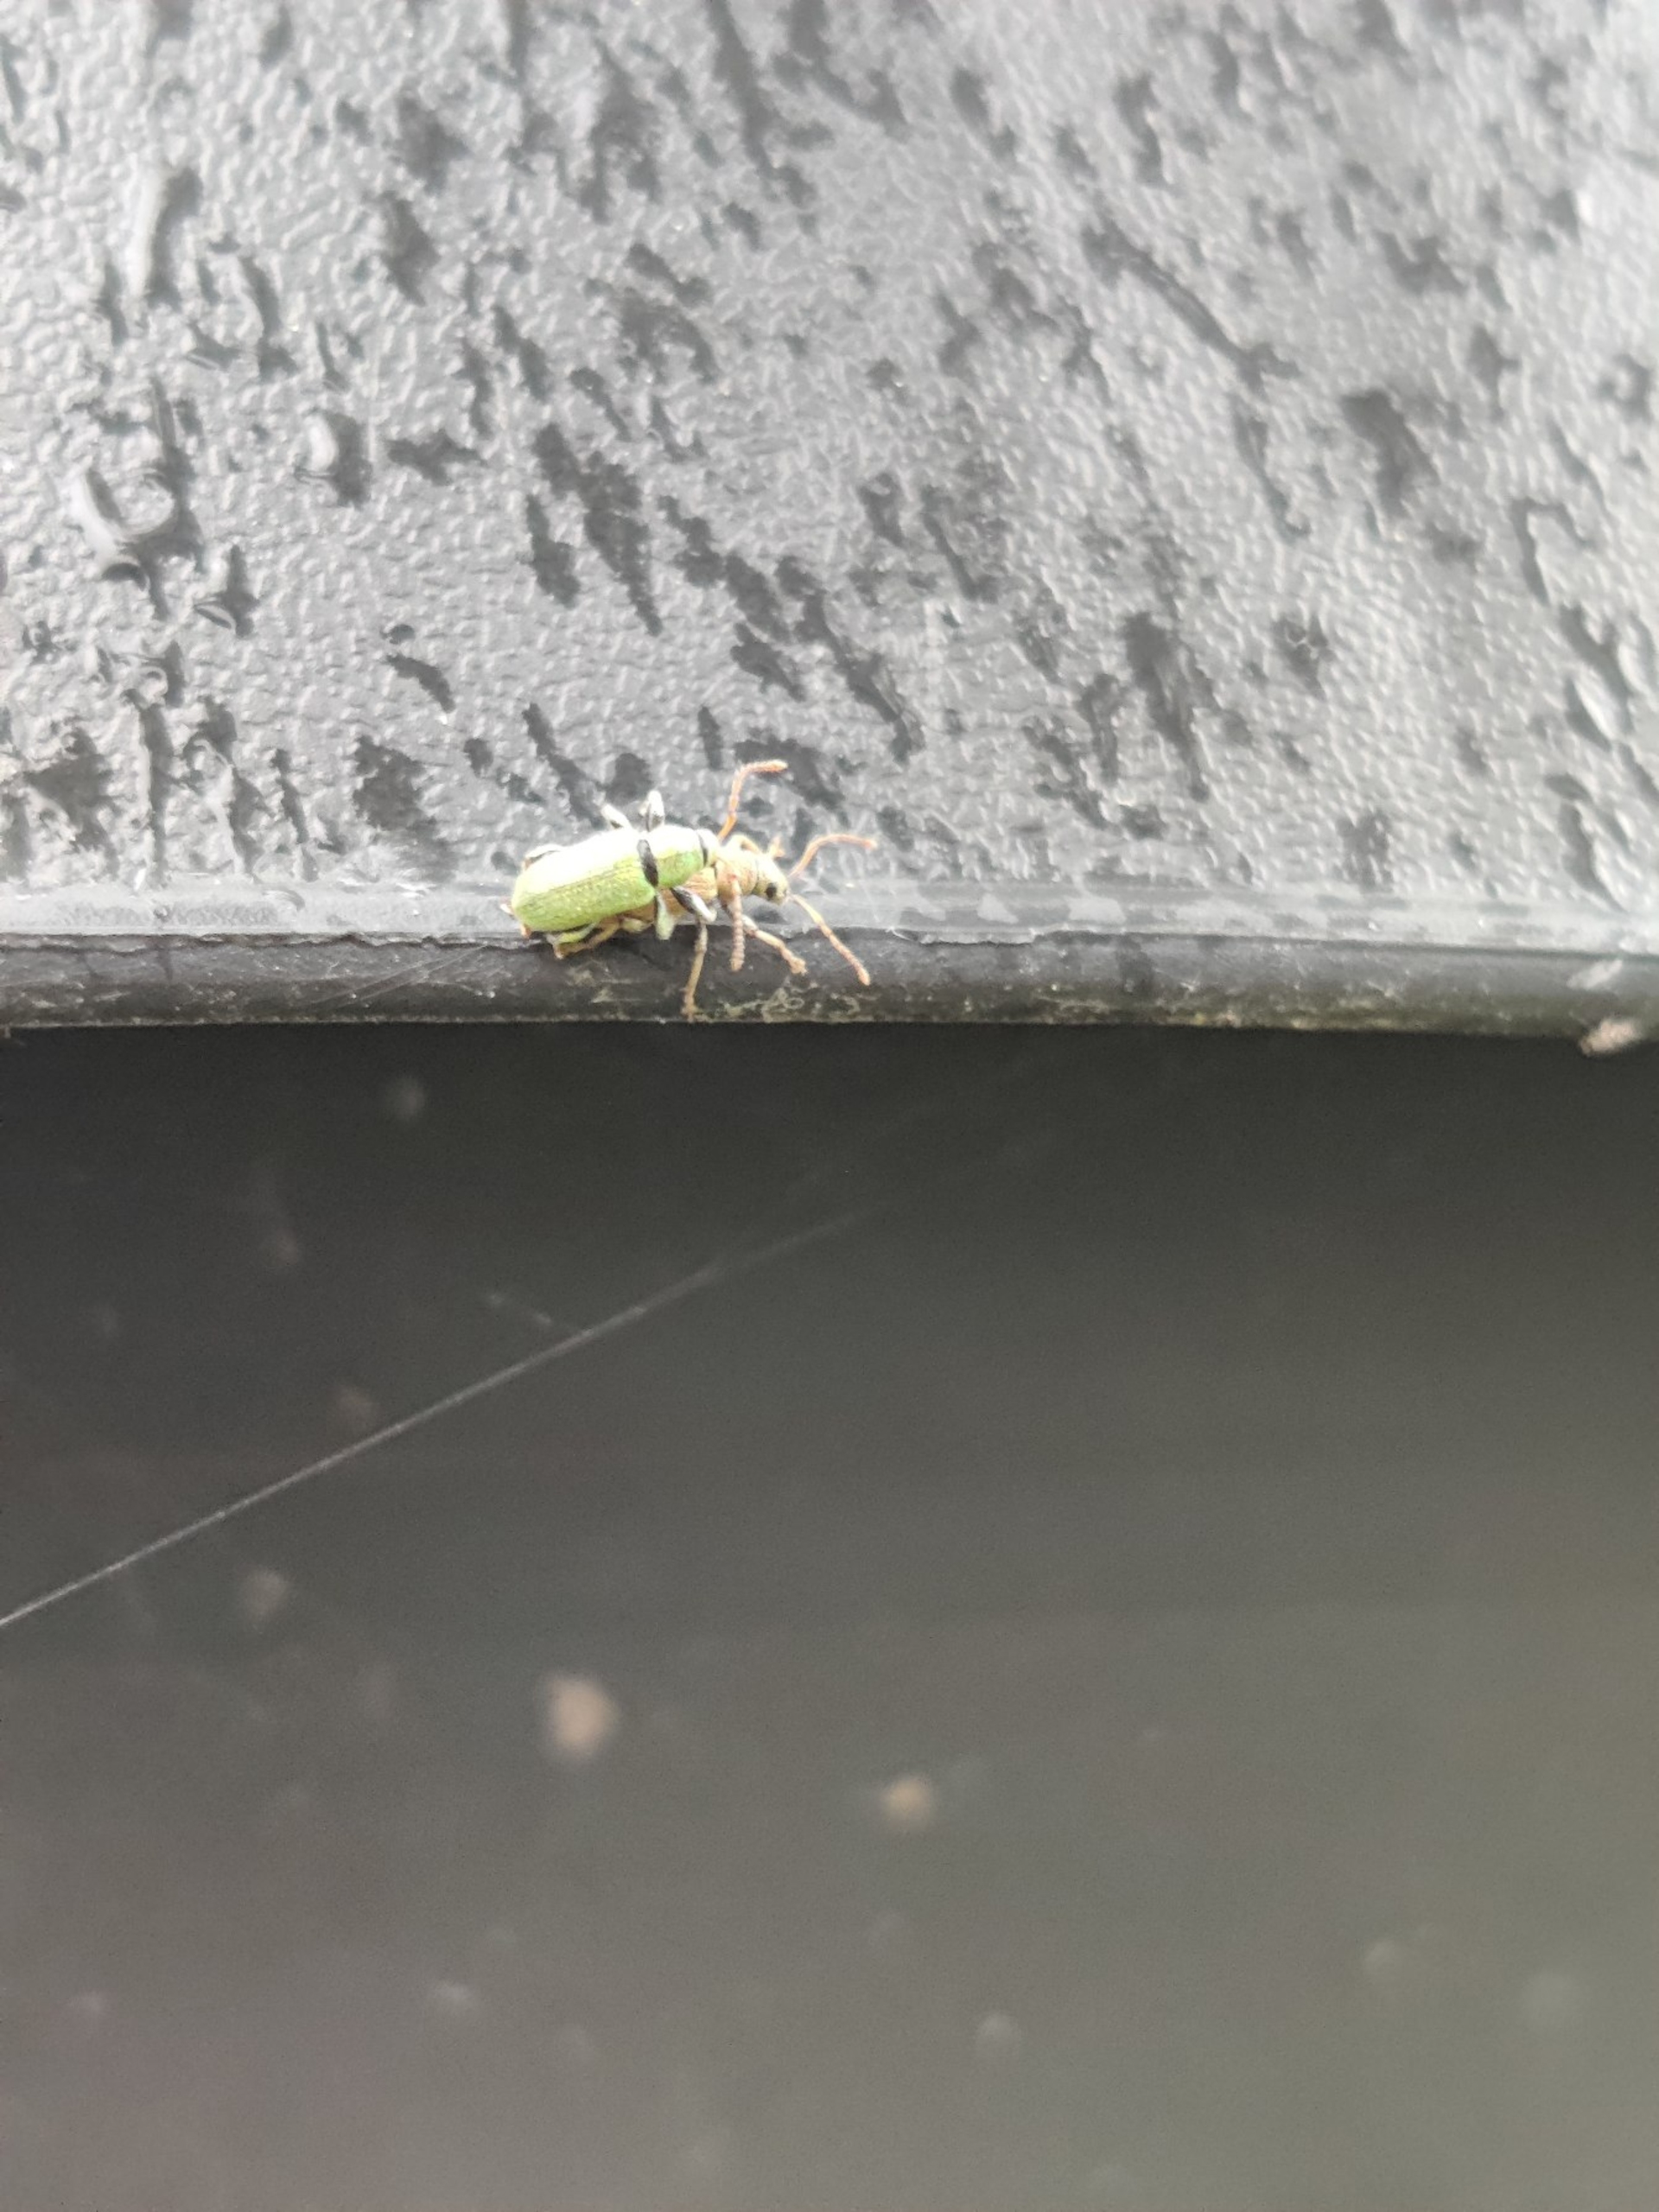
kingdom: Animalia
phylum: Arthropoda
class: Insecta
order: Coleoptera
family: Curculionidae
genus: Phyllobius
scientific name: Phyllobius argentatus
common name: Bøgeløvsnudebille
